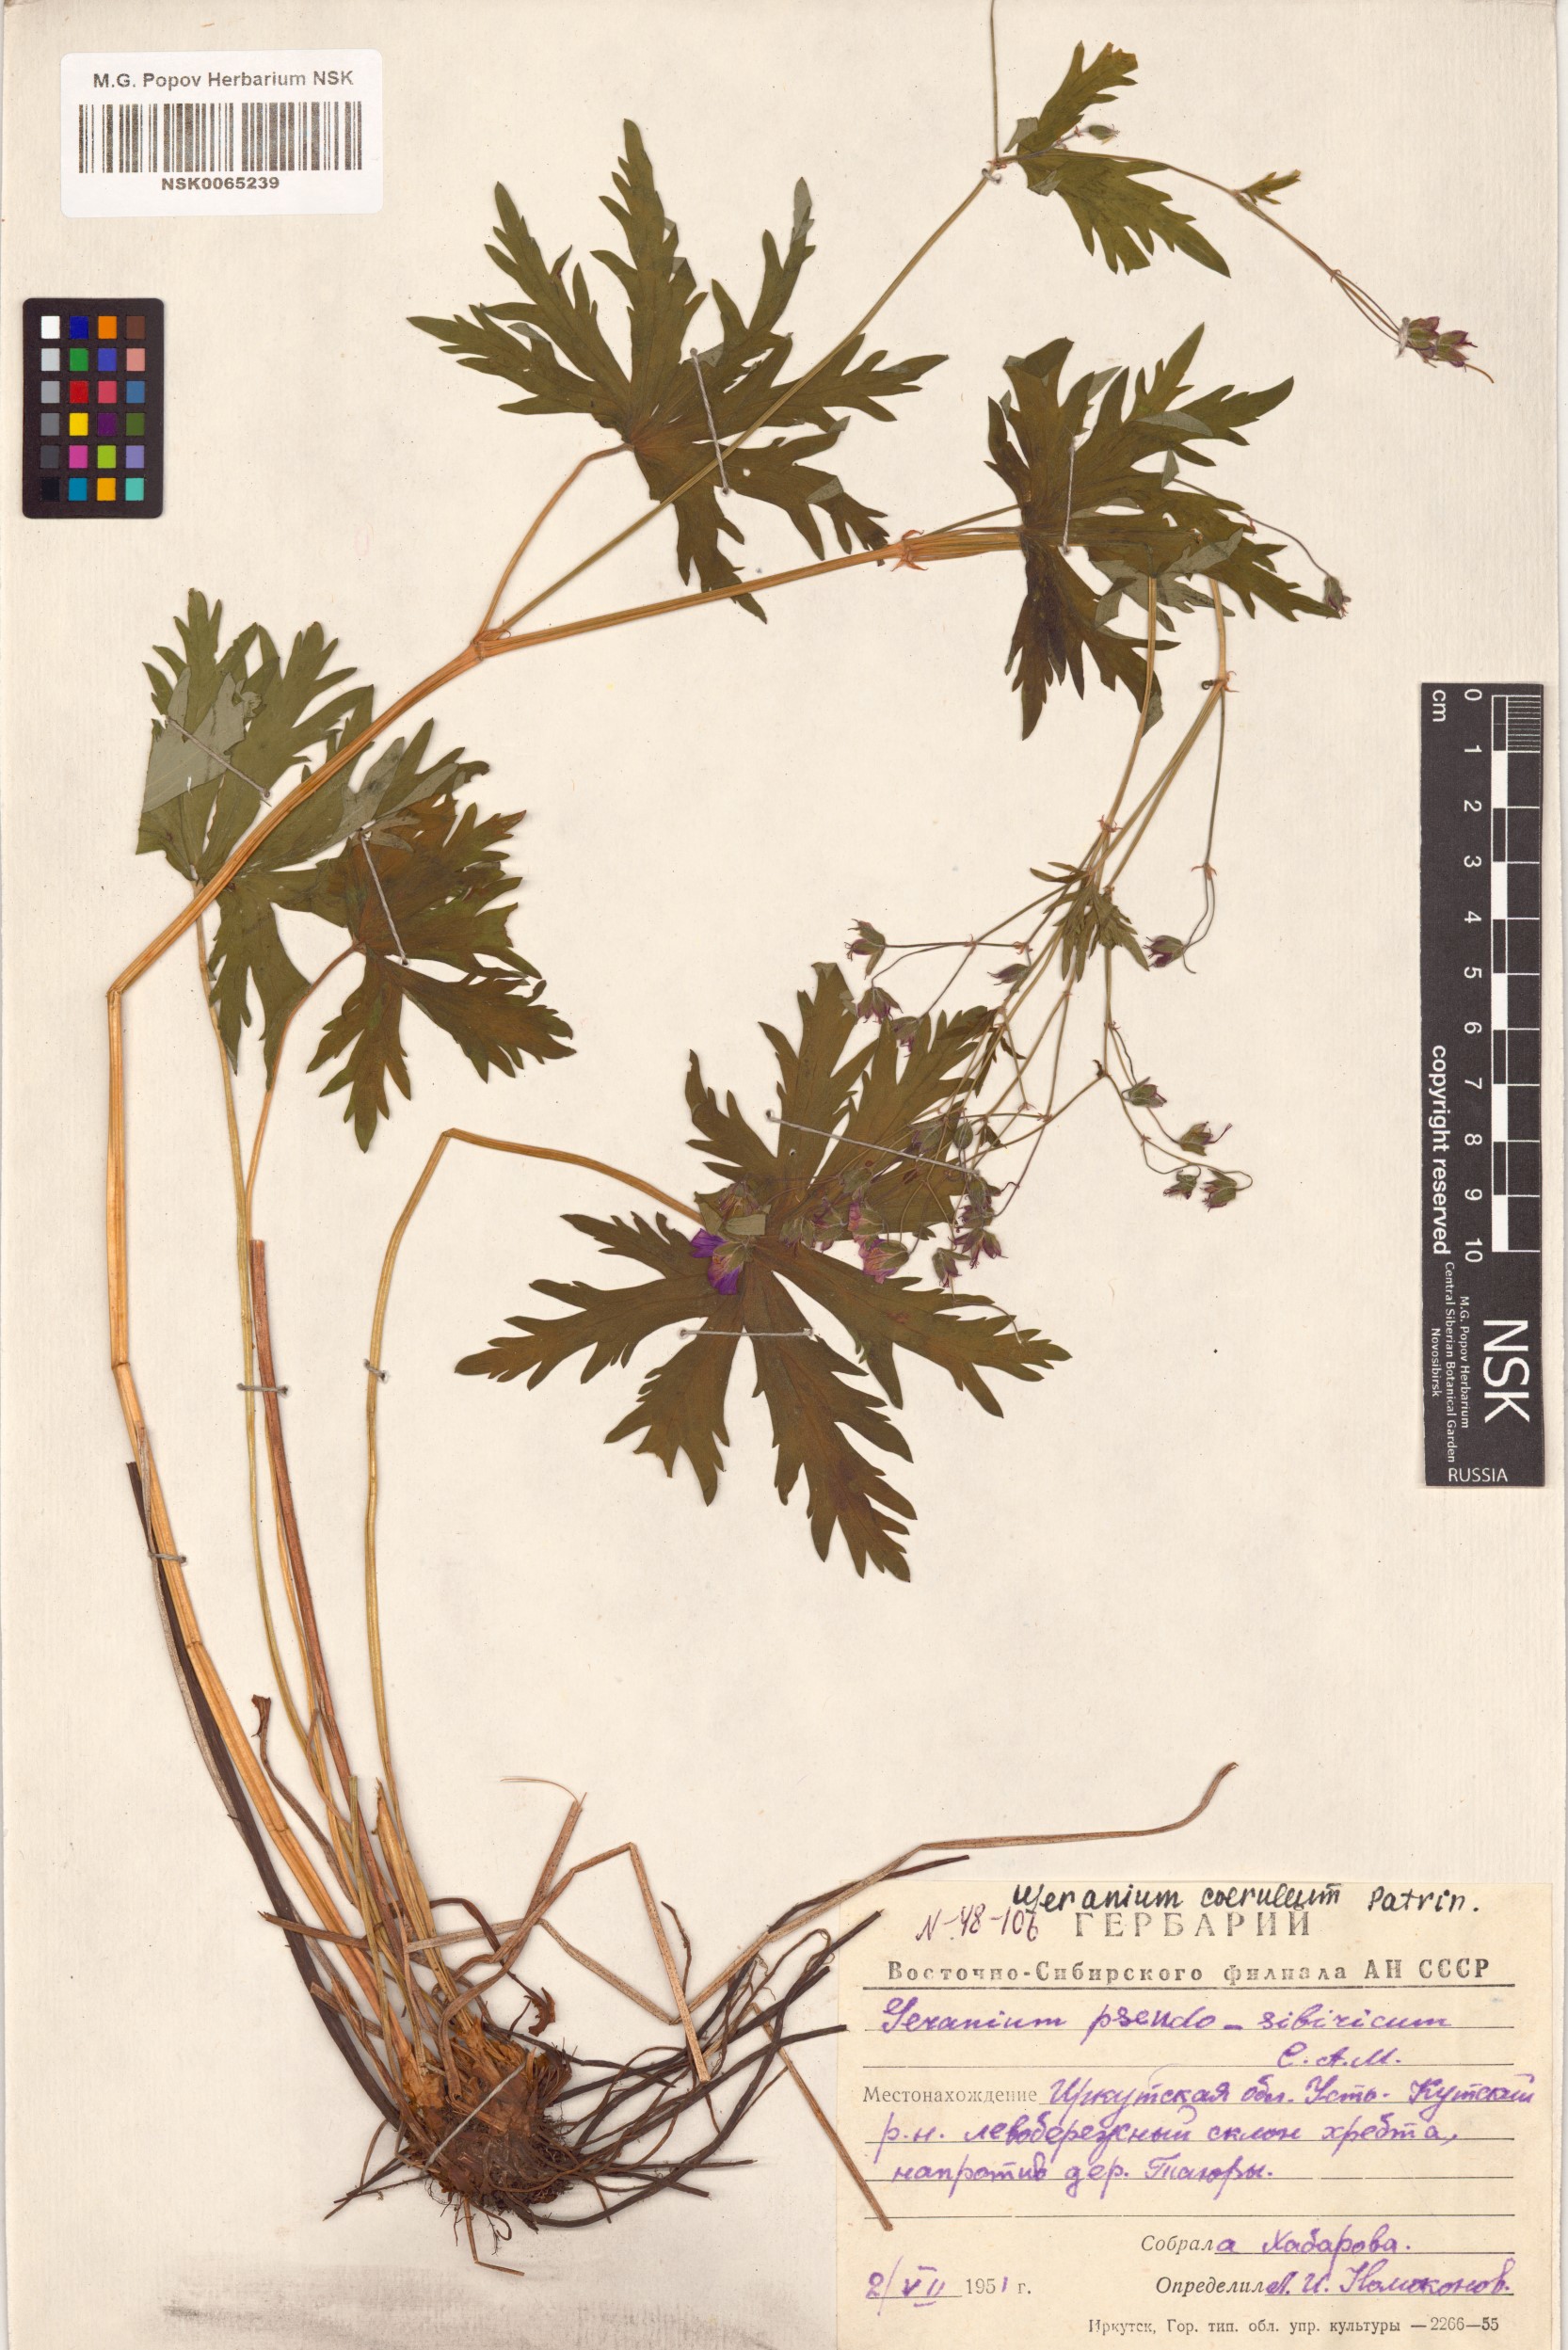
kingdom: Plantae
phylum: Tracheophyta
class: Magnoliopsida
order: Geraniales
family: Geraniaceae
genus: Geranium
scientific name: Geranium pseudosibiricum
